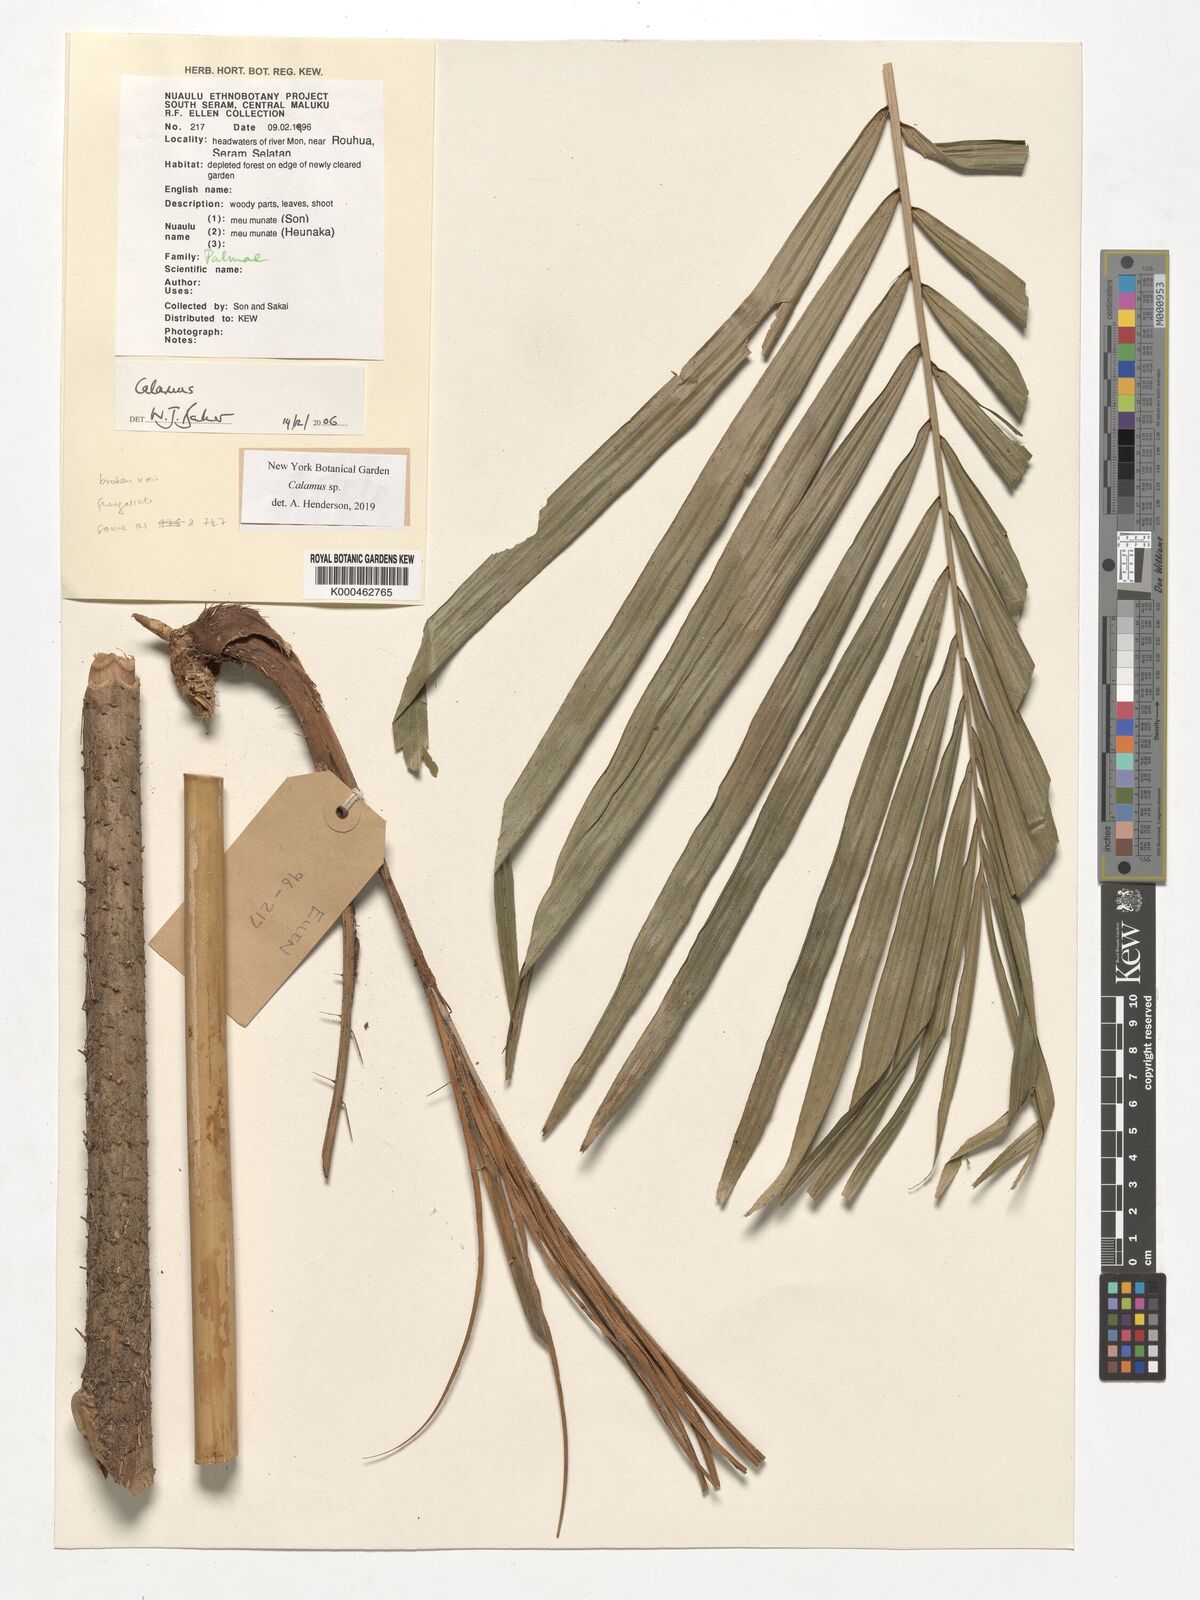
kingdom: Plantae
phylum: Tracheophyta
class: Liliopsida
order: Arecales
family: Arecaceae
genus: Calamus
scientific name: Calamus
